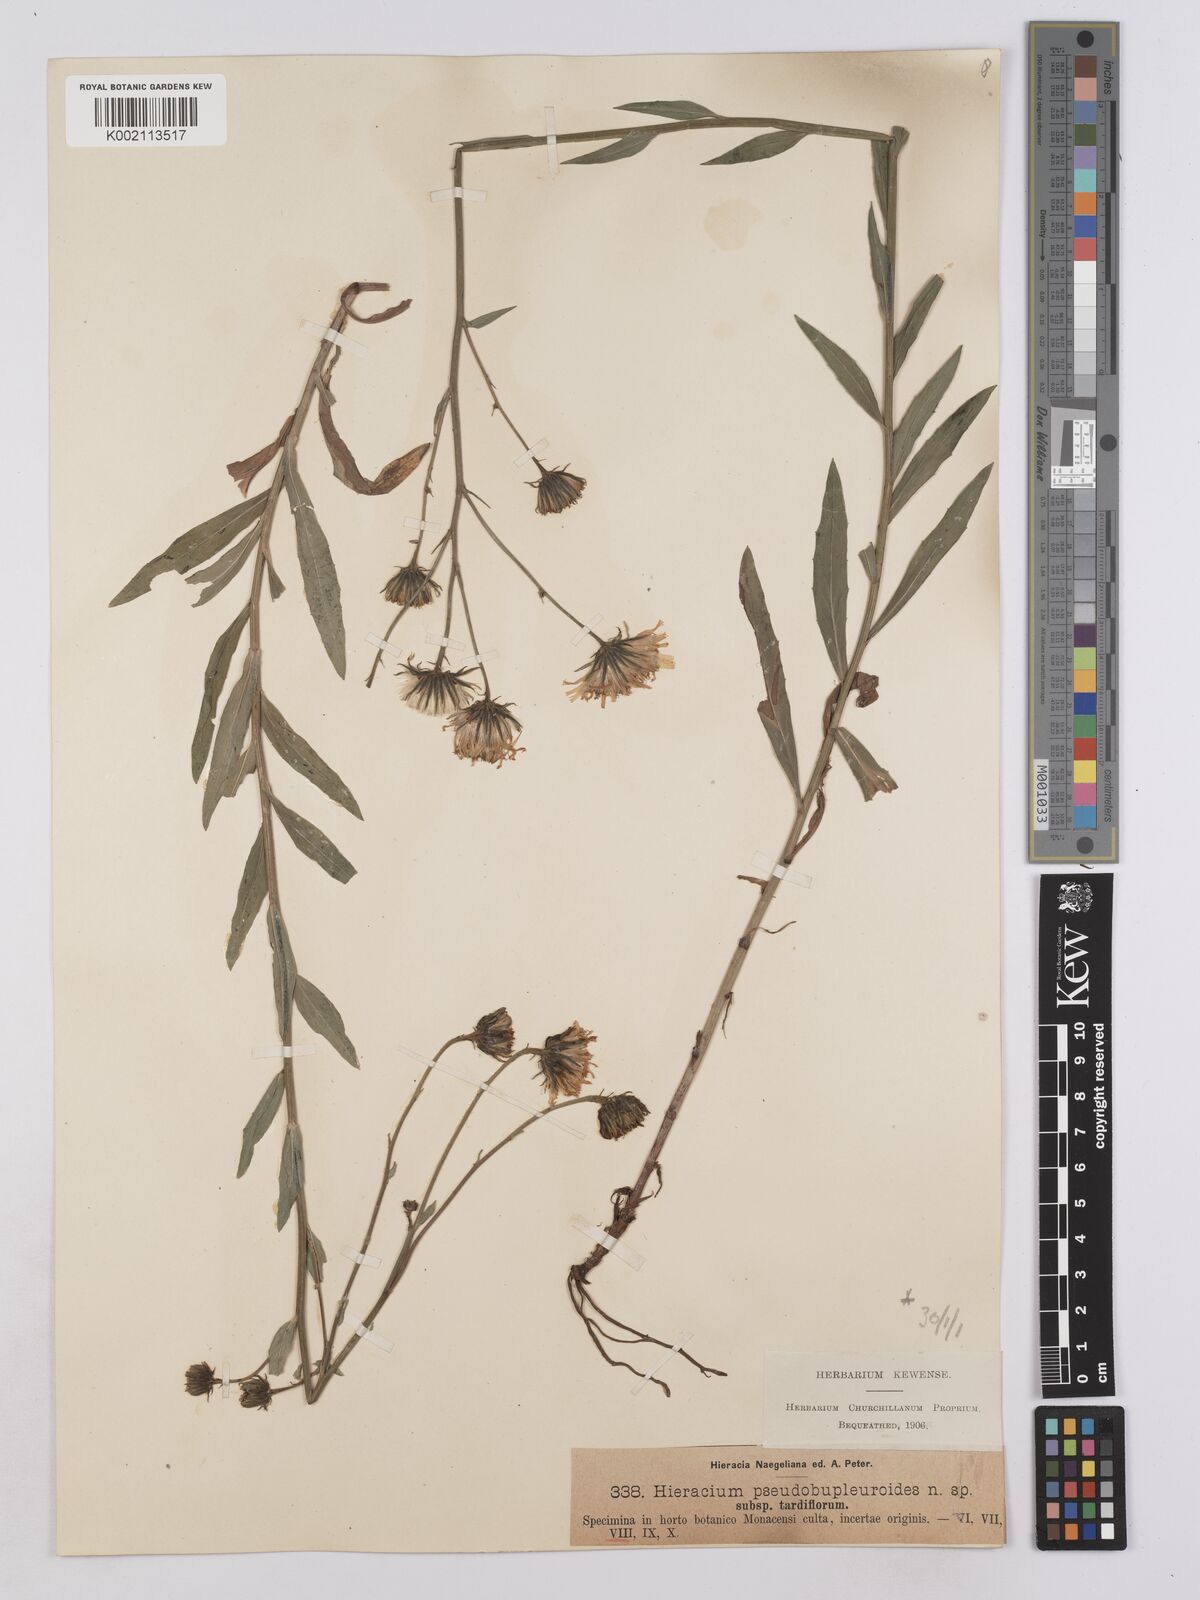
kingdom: Plantae
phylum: Tracheophyta
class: Magnoliopsida
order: Asterales
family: Asteraceae
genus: Hieracium
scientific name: Hieracium vindobonense
